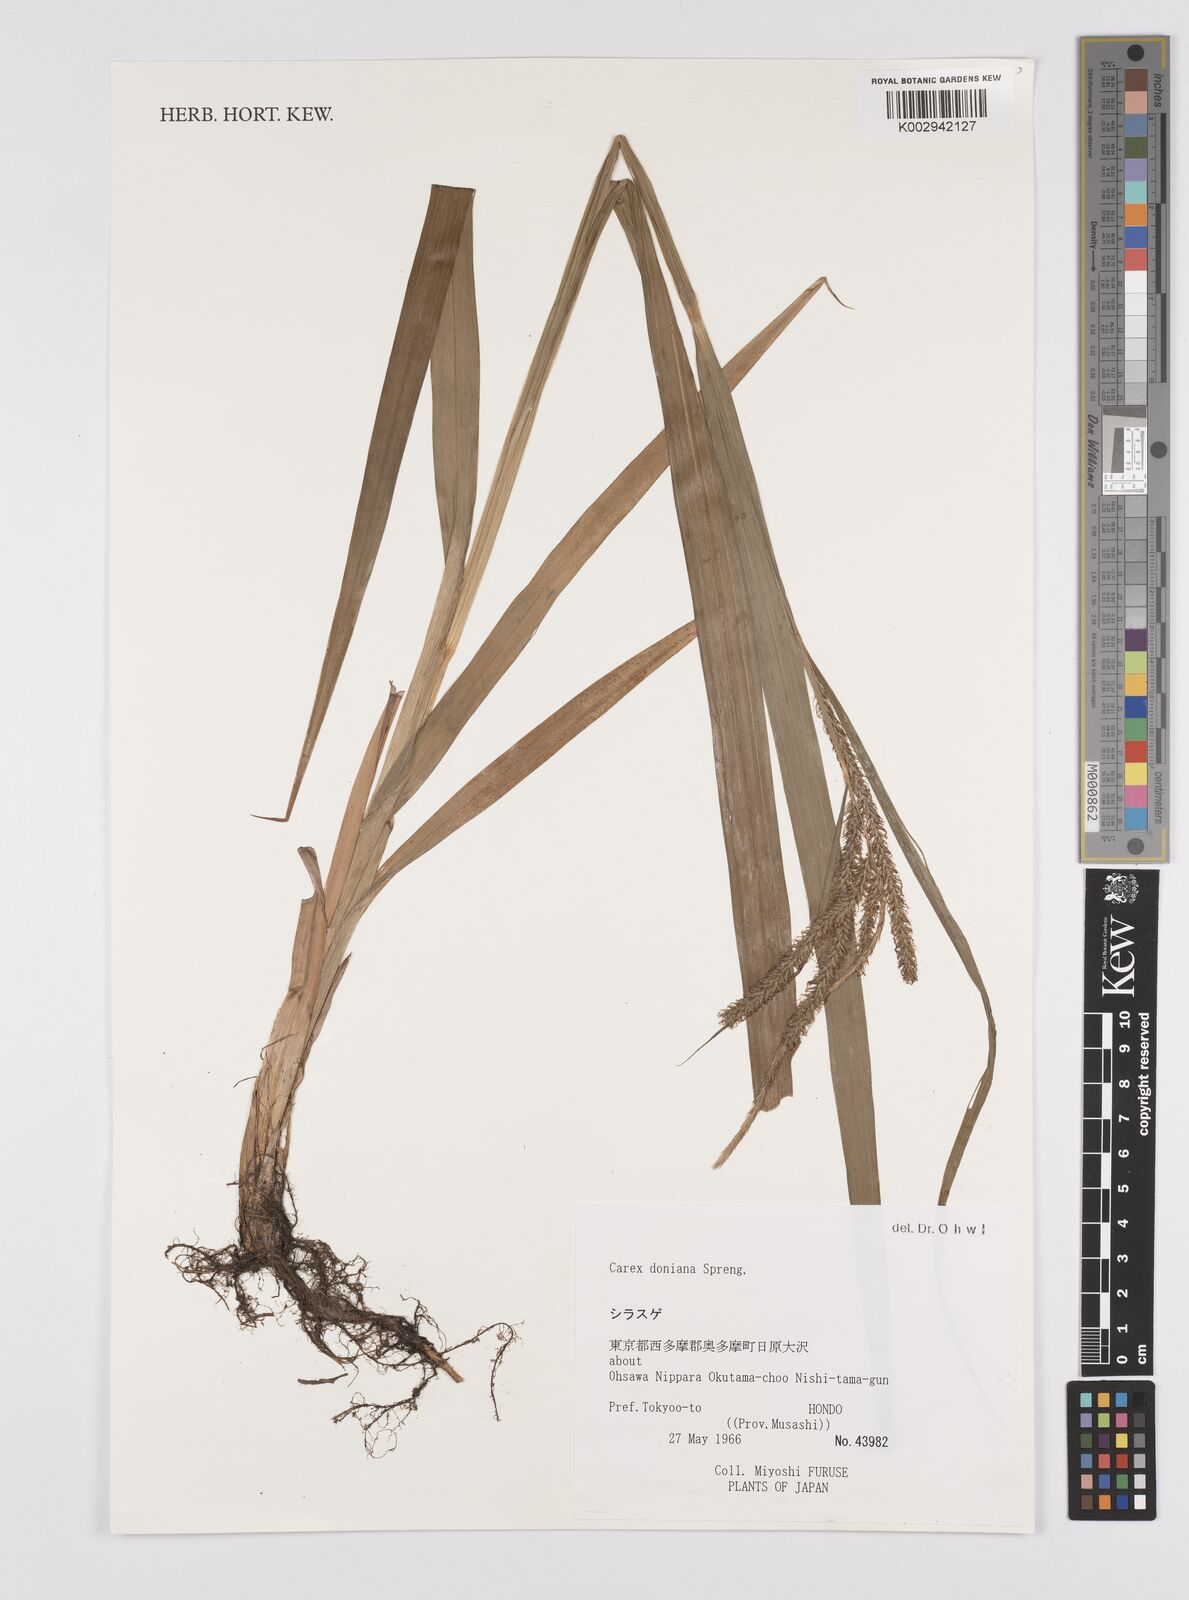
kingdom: Plantae
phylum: Tracheophyta
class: Liliopsida
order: Poales
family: Cyperaceae
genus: Carex
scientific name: Carex japonica
